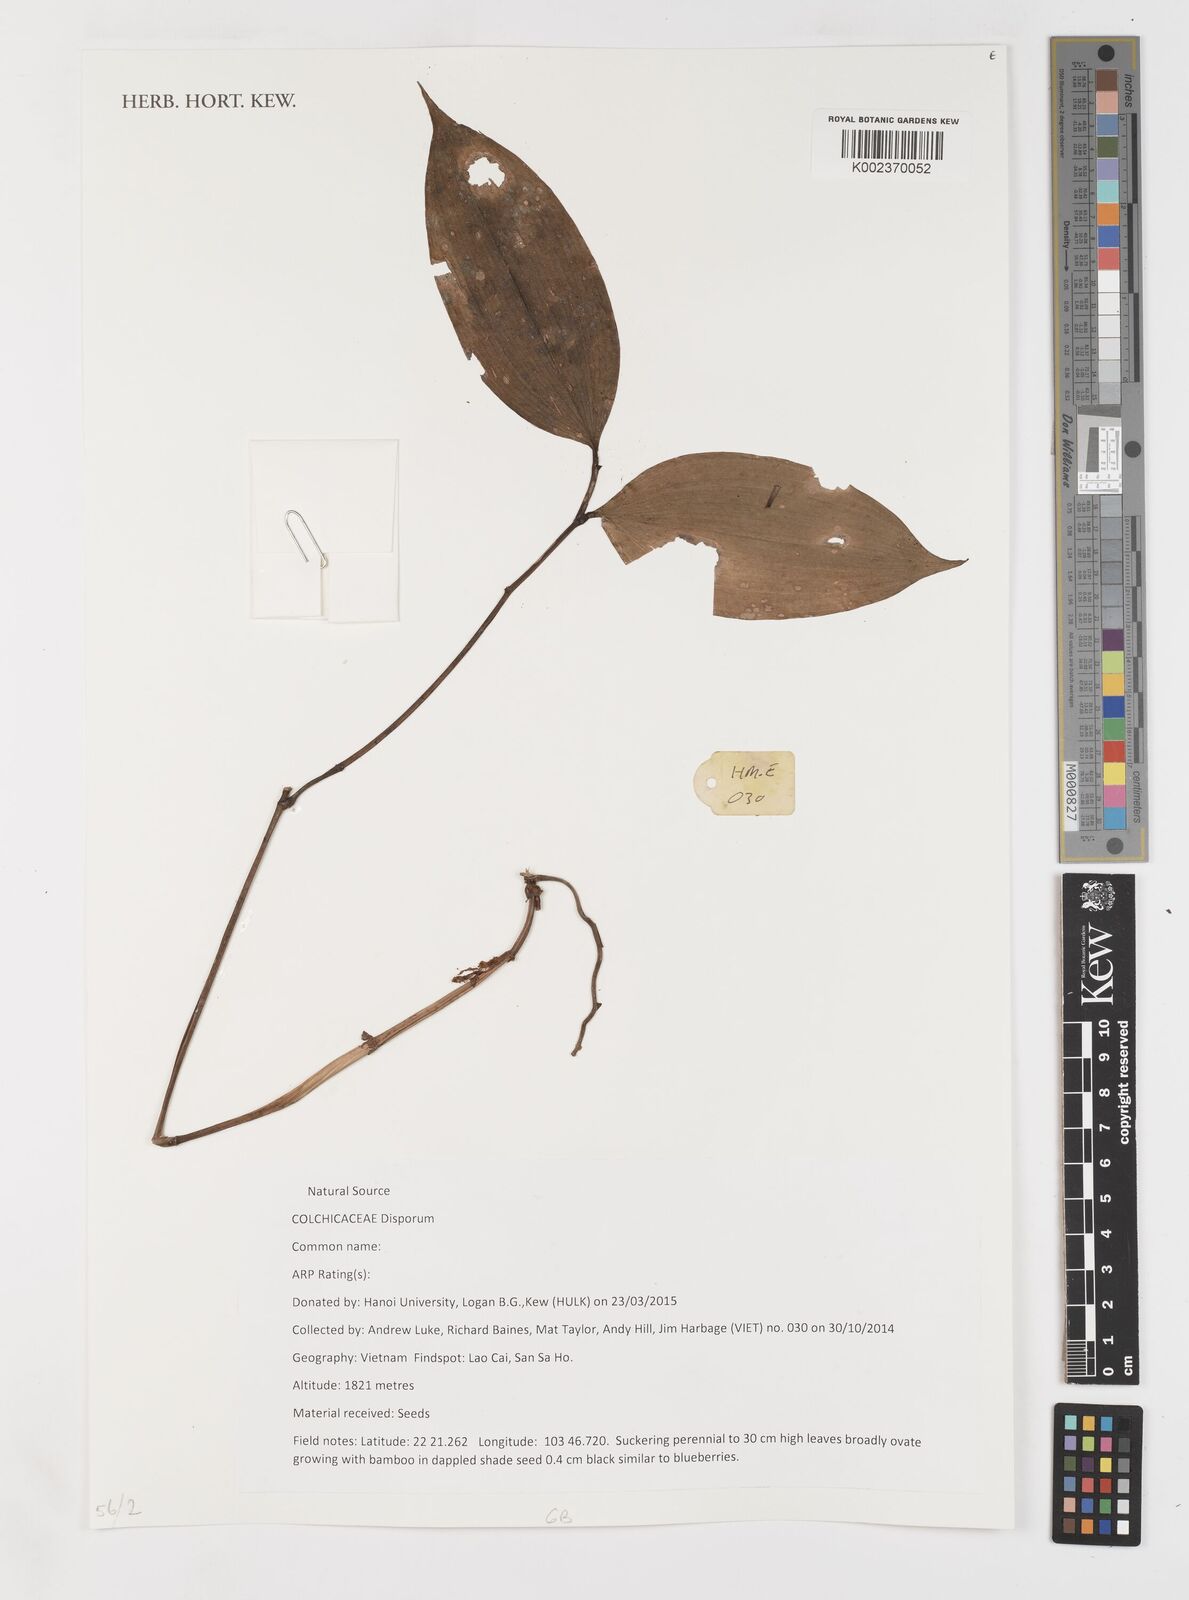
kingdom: Plantae
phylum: Tracheophyta
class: Liliopsida
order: Liliales
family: Colchicaceae
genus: Disporum
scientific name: Disporum
